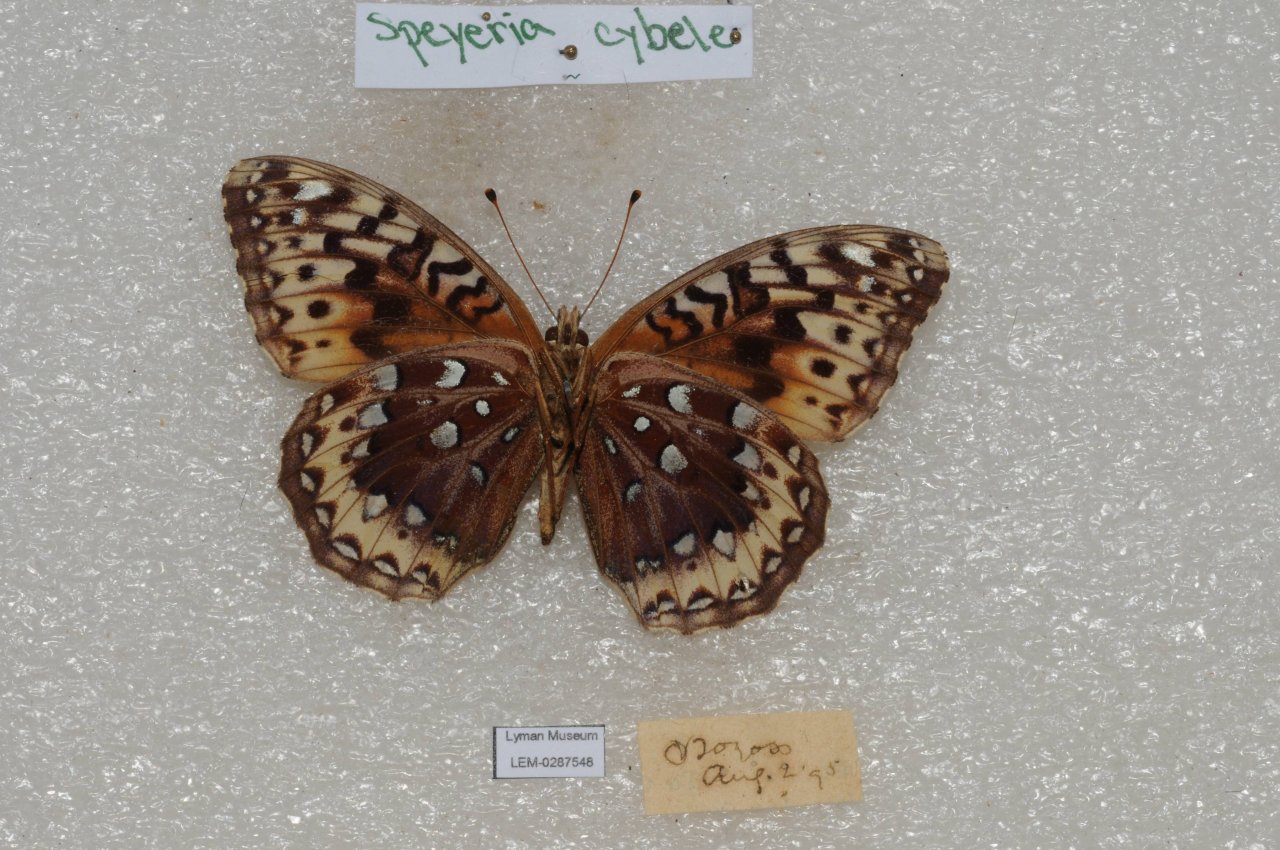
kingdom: Animalia
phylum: Arthropoda
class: Insecta
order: Lepidoptera
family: Nymphalidae
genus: Speyeria
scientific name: Speyeria cybele
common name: Great Spangled Fritillary
